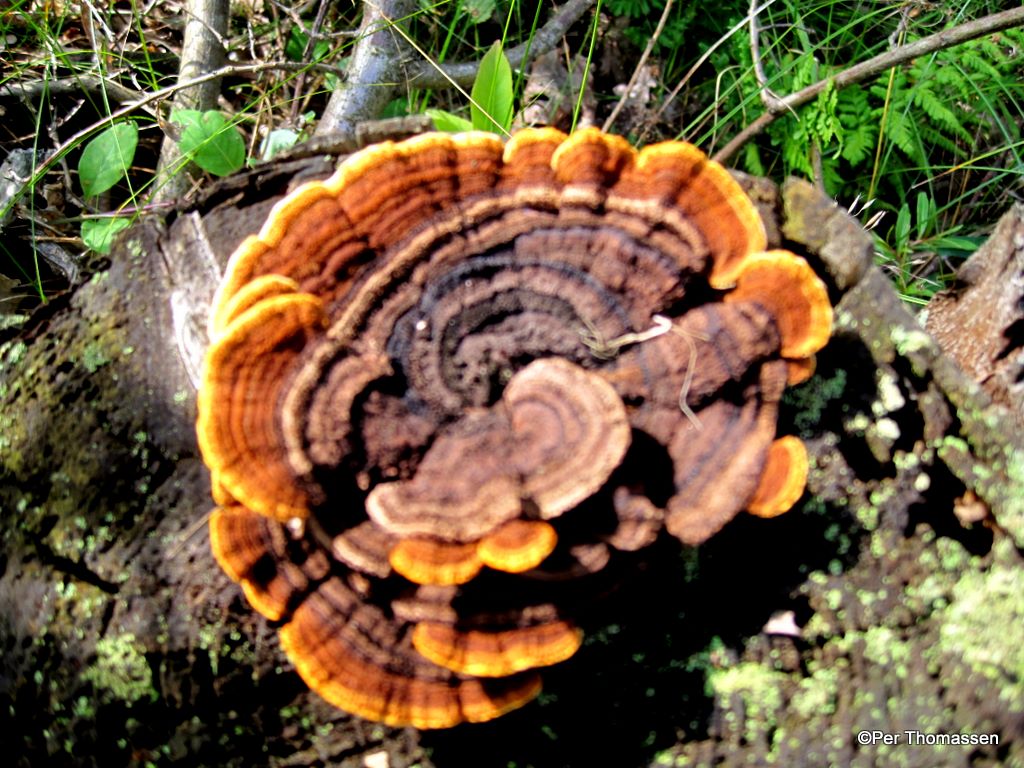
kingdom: Fungi
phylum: Basidiomycota
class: Agaricomycetes
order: Gloeophyllales
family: Gloeophyllaceae
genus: Gloeophyllum
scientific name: Gloeophyllum sepiarium
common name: fyrre-korkhat
